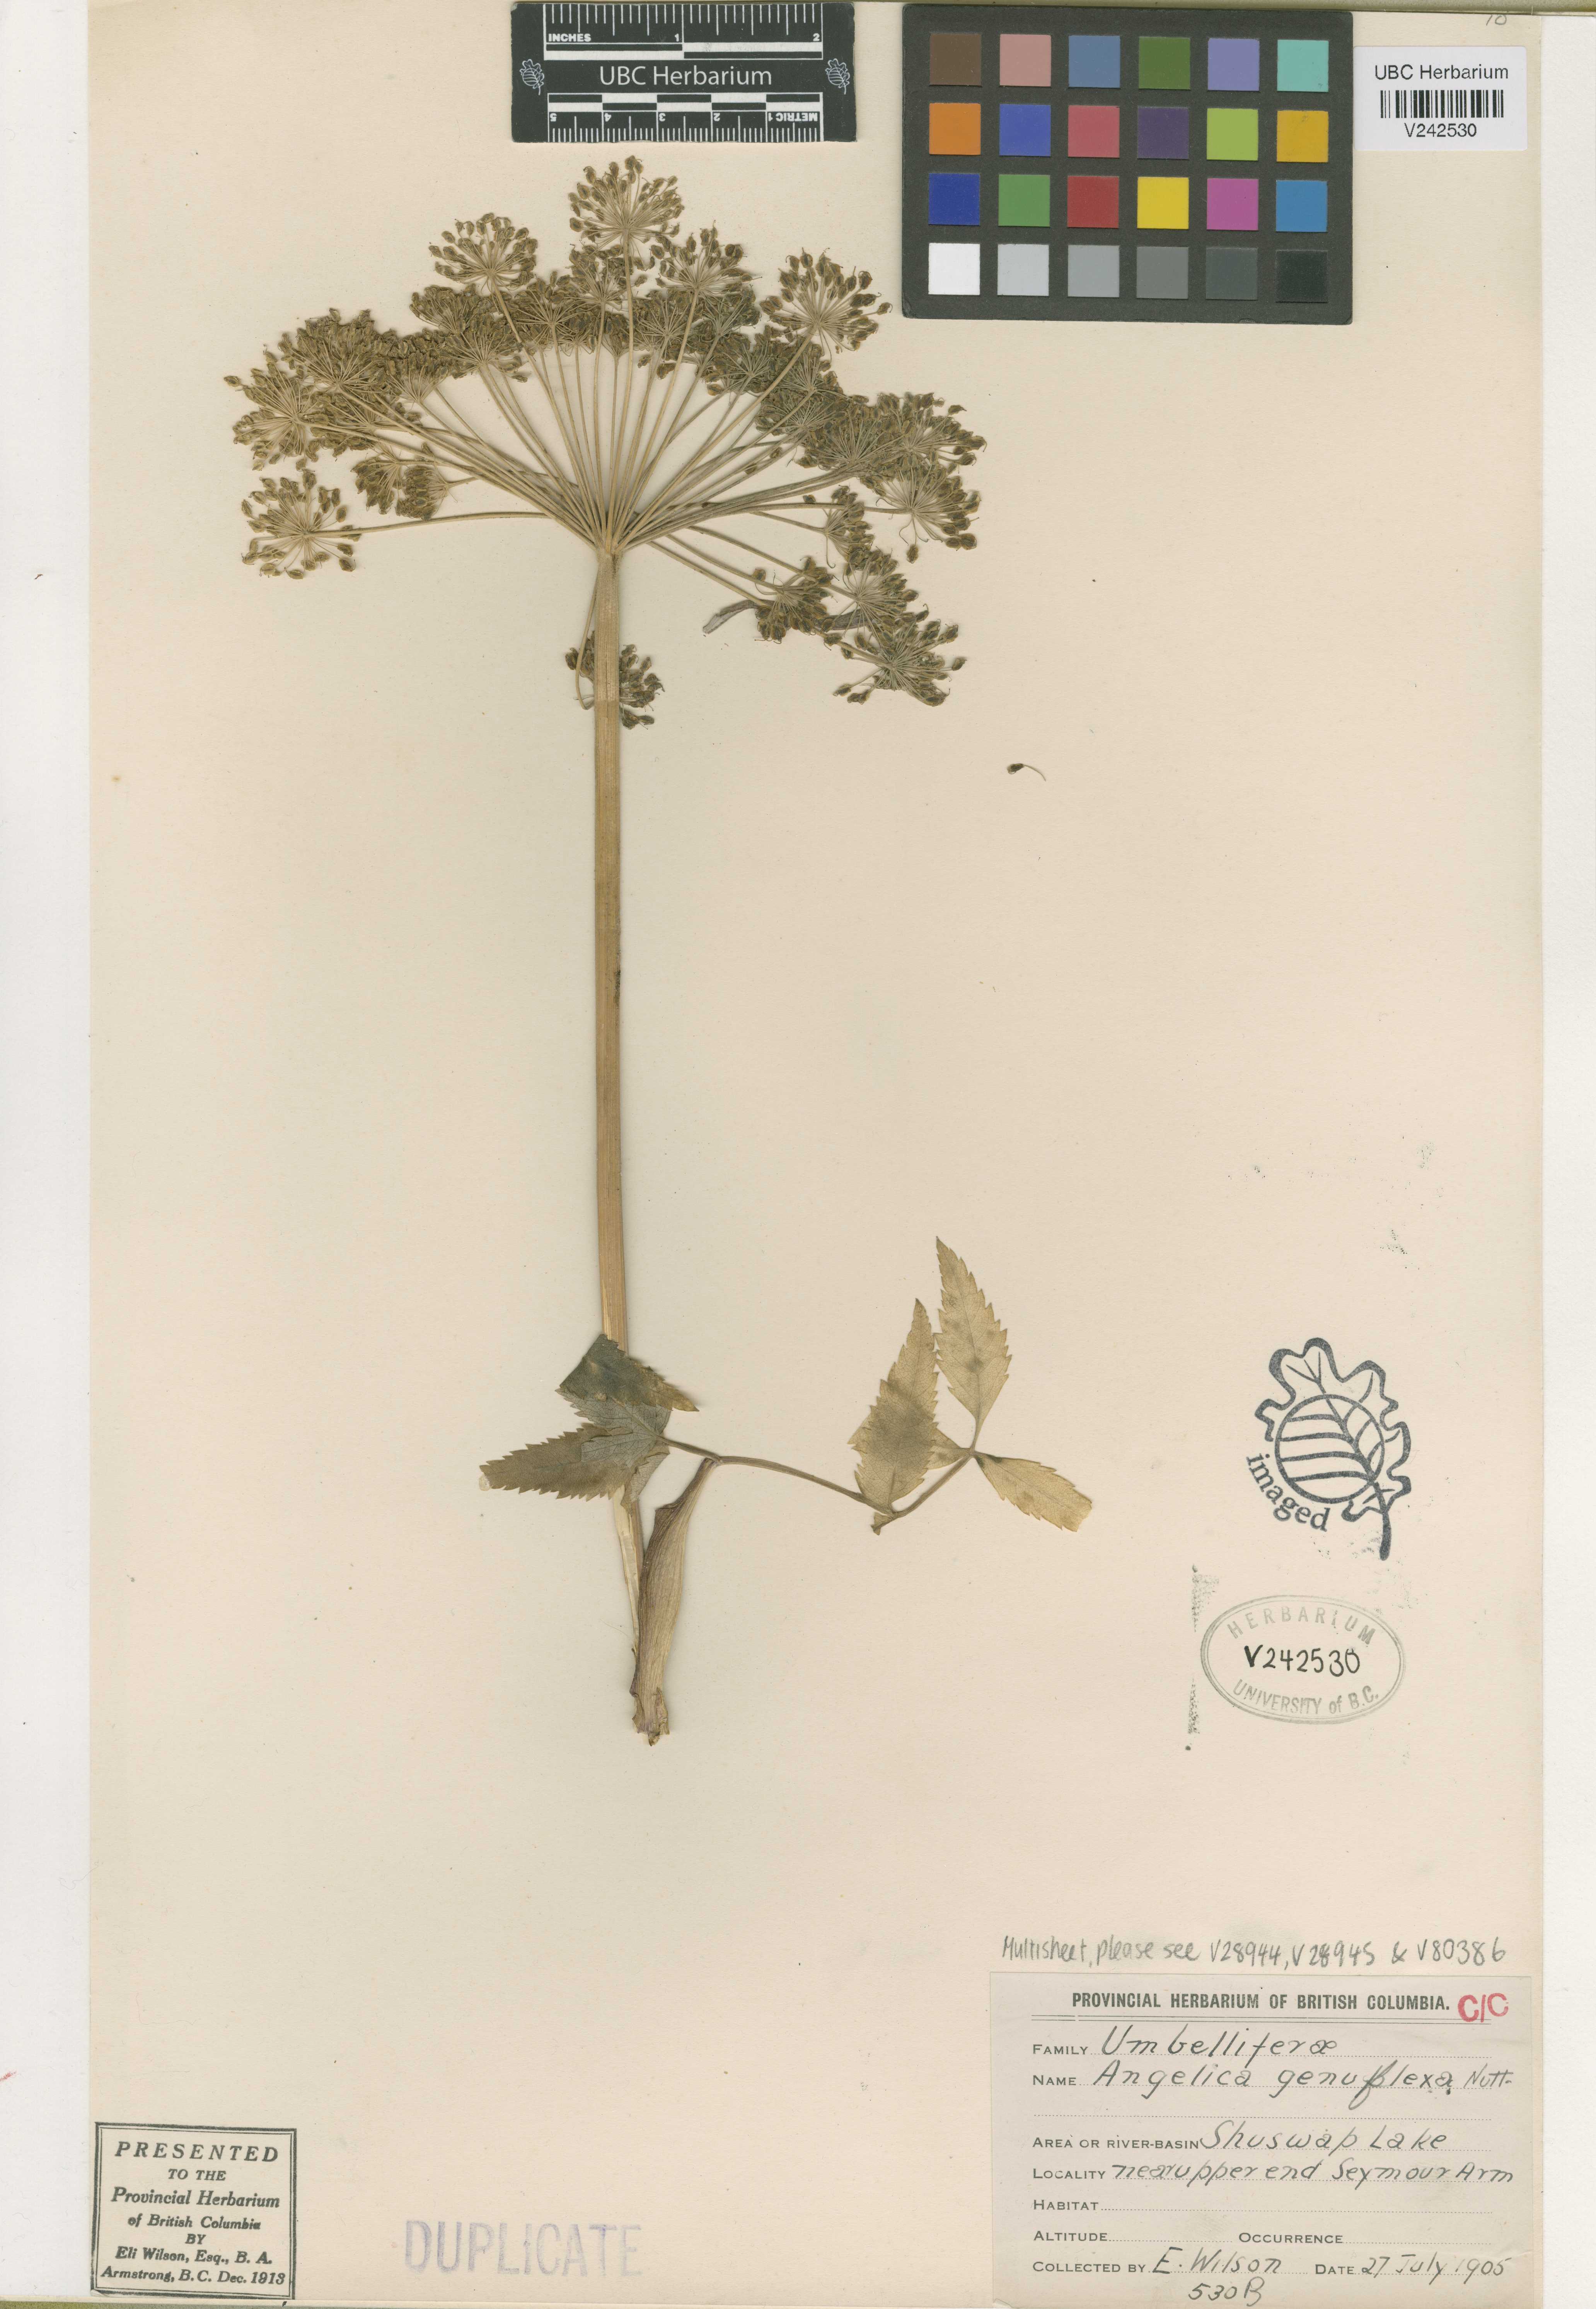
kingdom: Plantae
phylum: Tracheophyta
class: Magnoliopsida
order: Apiales
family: Apiaceae
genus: Angelica
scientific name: Angelica genuflexa
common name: Kneeling angelica
